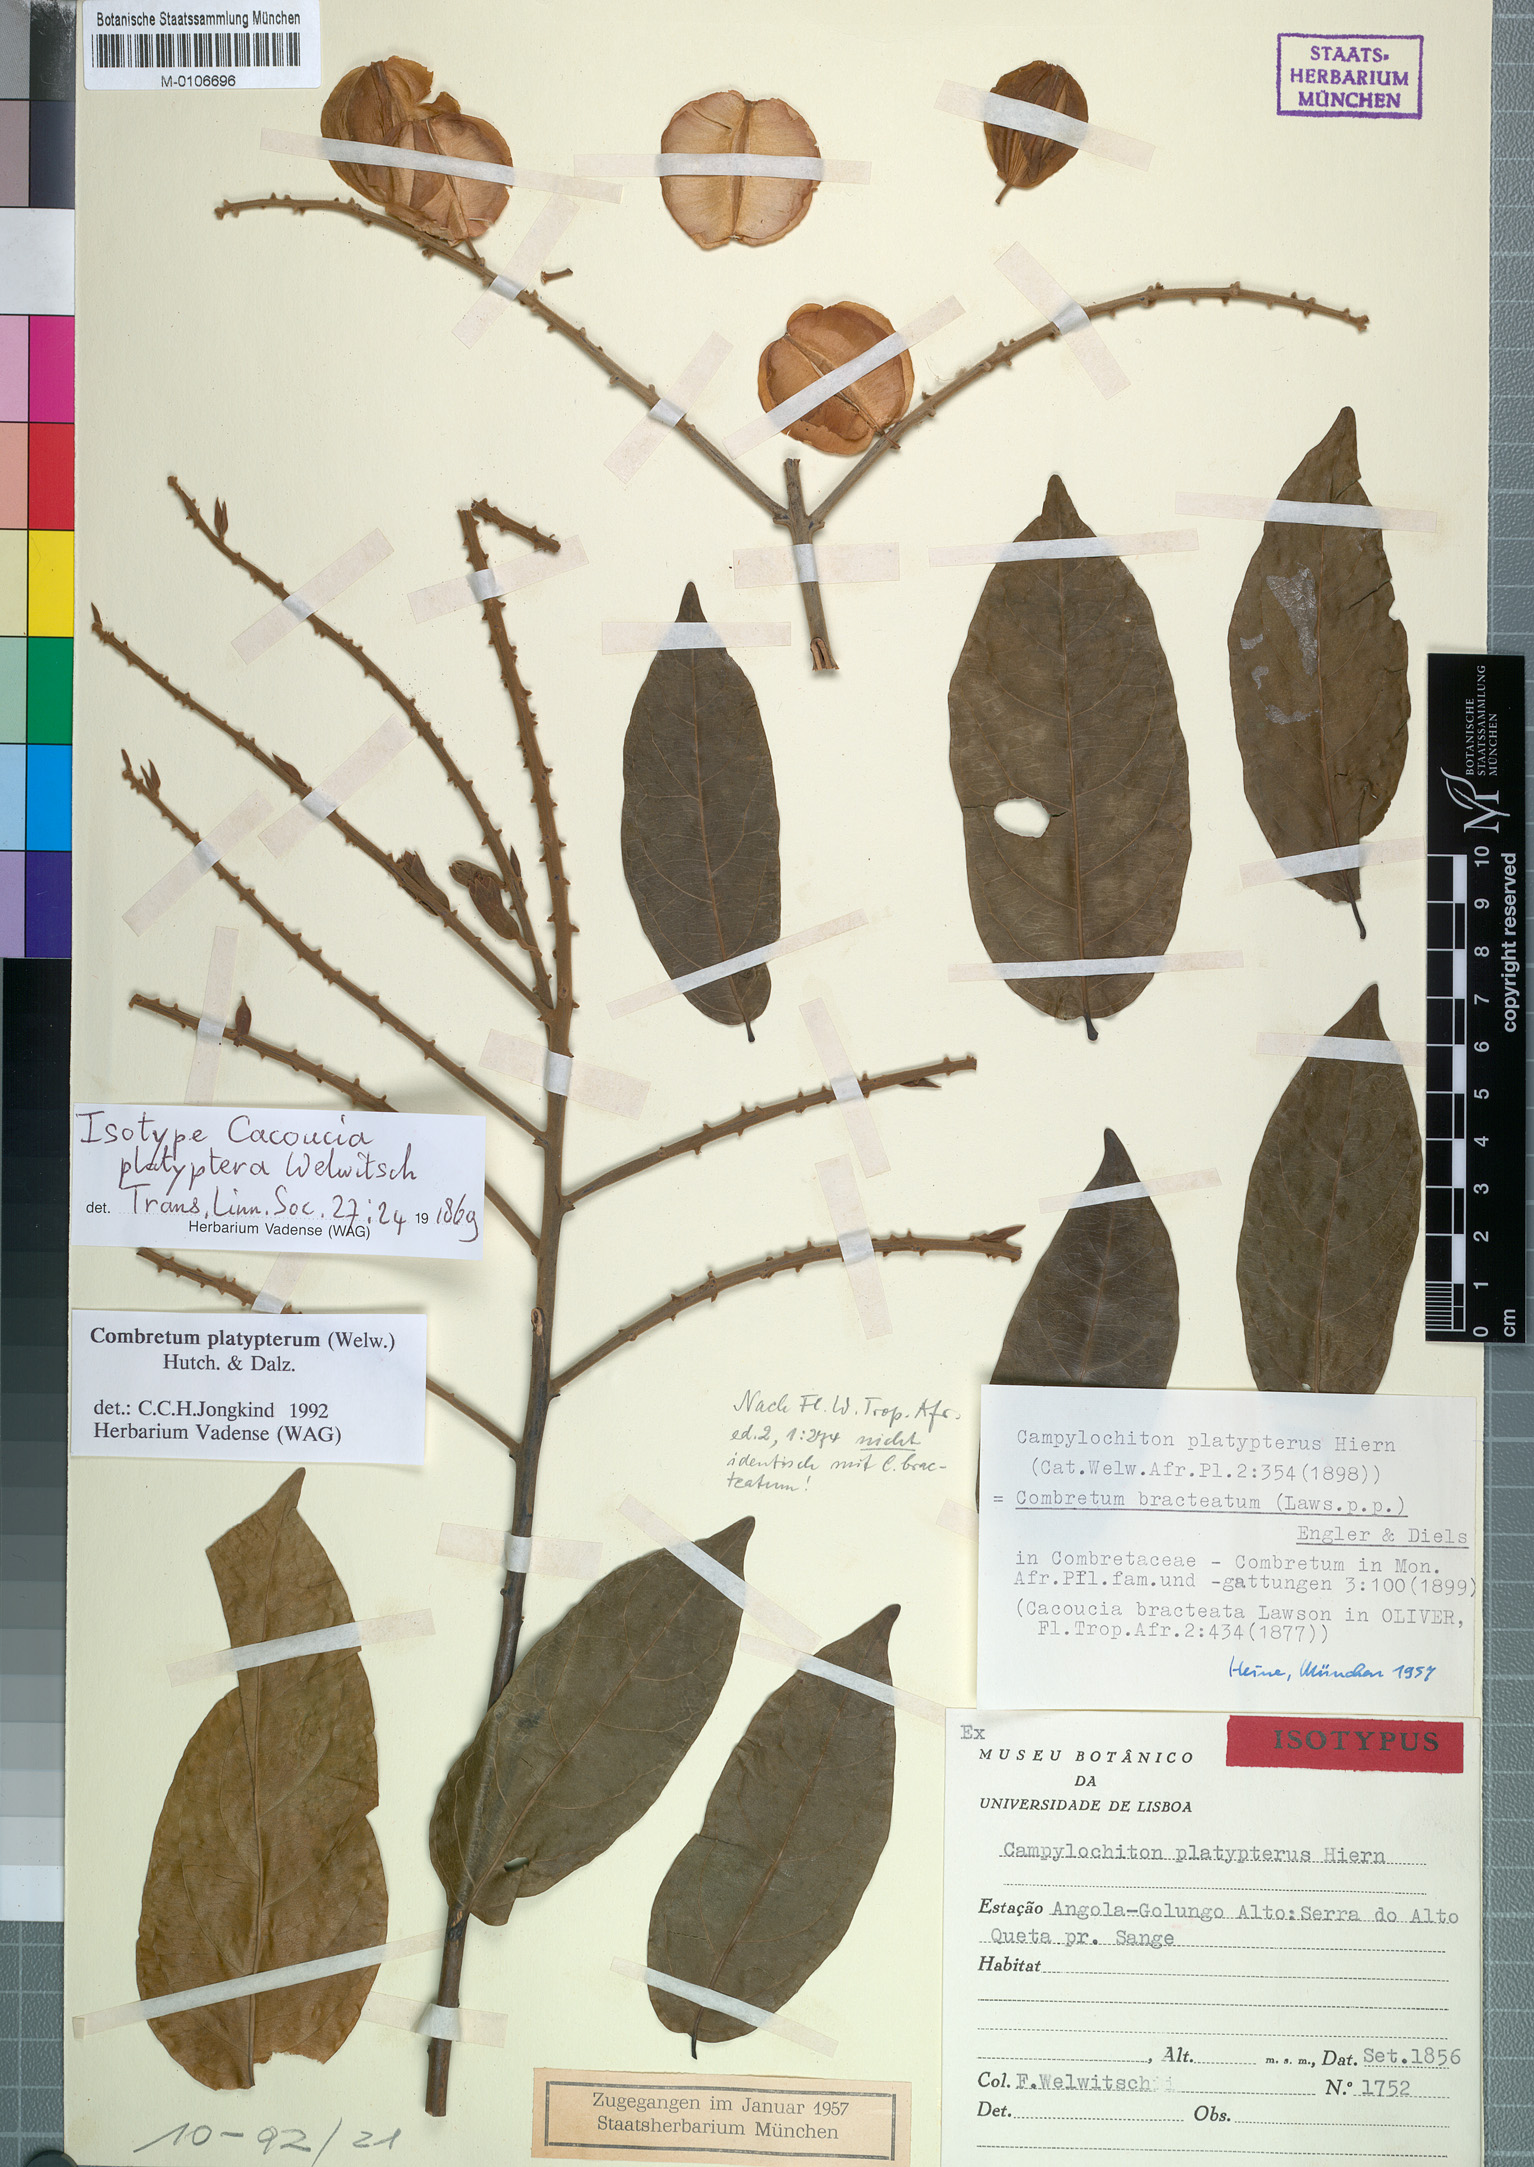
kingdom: Plantae
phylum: Tracheophyta
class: Magnoliopsida
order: Myrtales
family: Combretaceae
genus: Combretum
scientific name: Combretum platypterum
